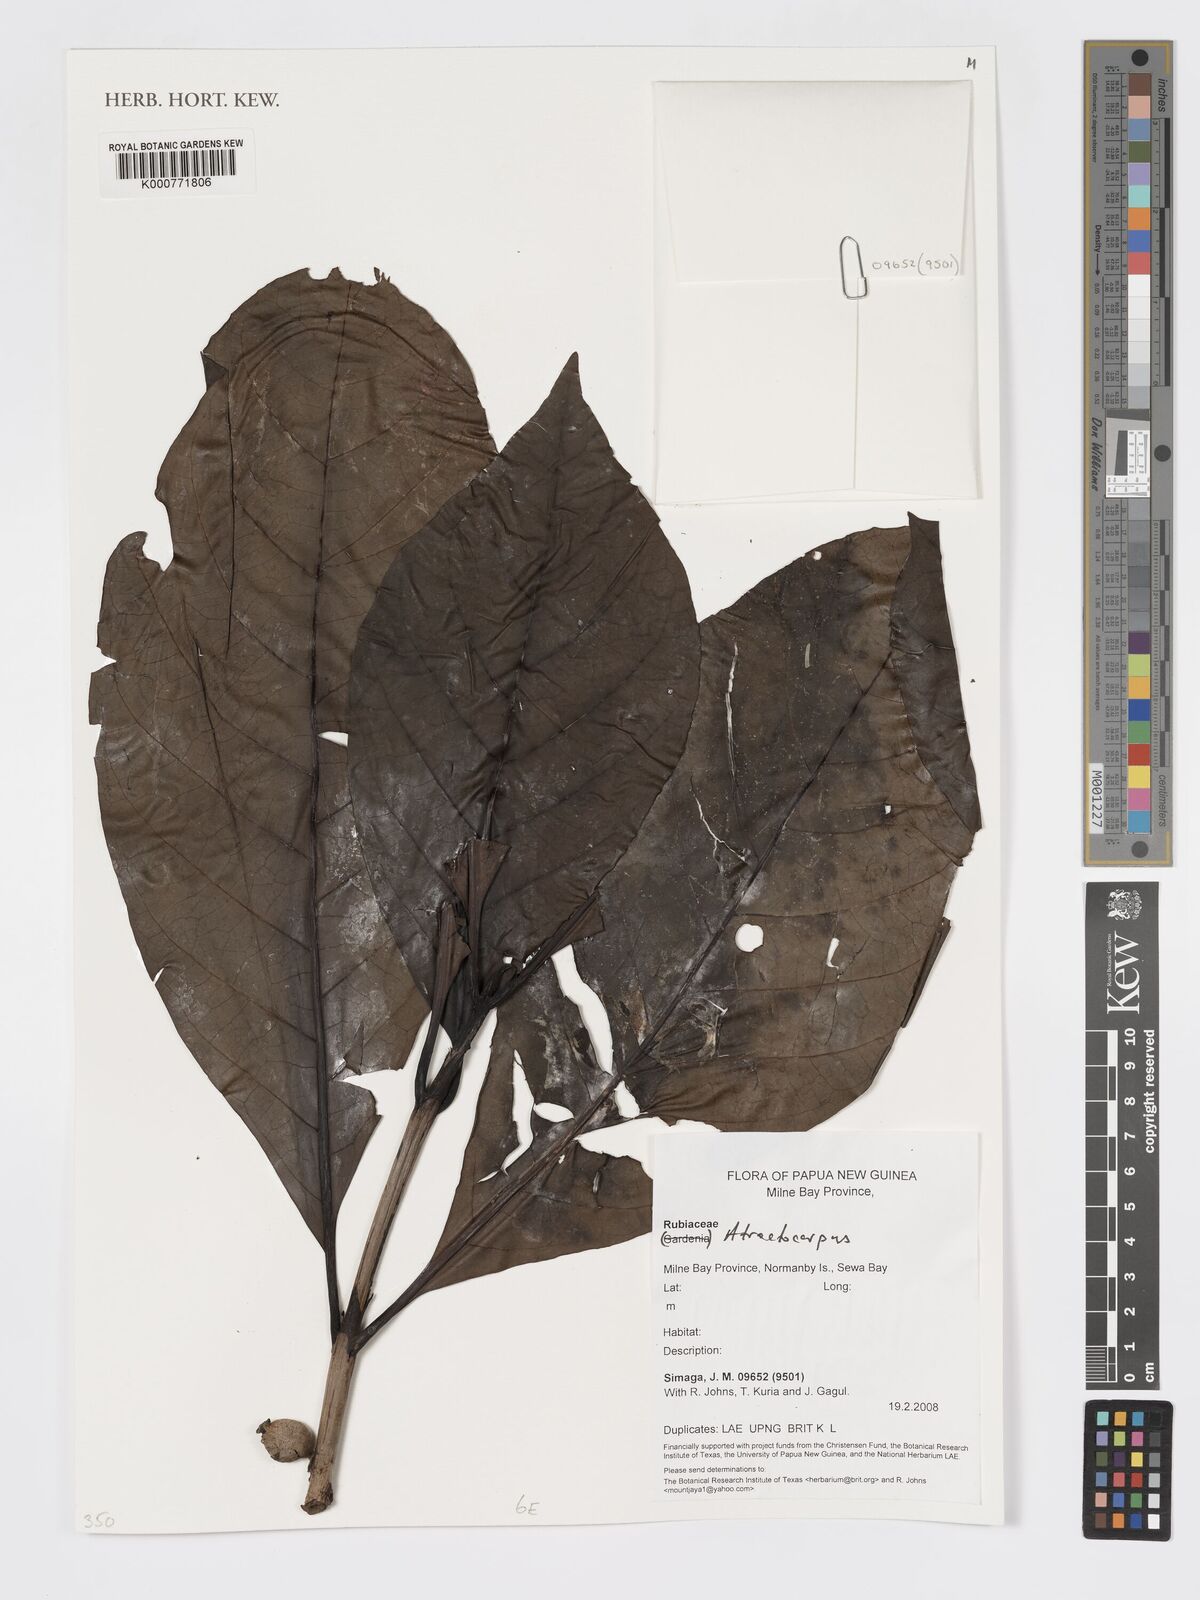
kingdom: Plantae
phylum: Tracheophyta
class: Magnoliopsida
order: Gentianales
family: Rubiaceae
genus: Atractocarpus
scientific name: Atractocarpus
